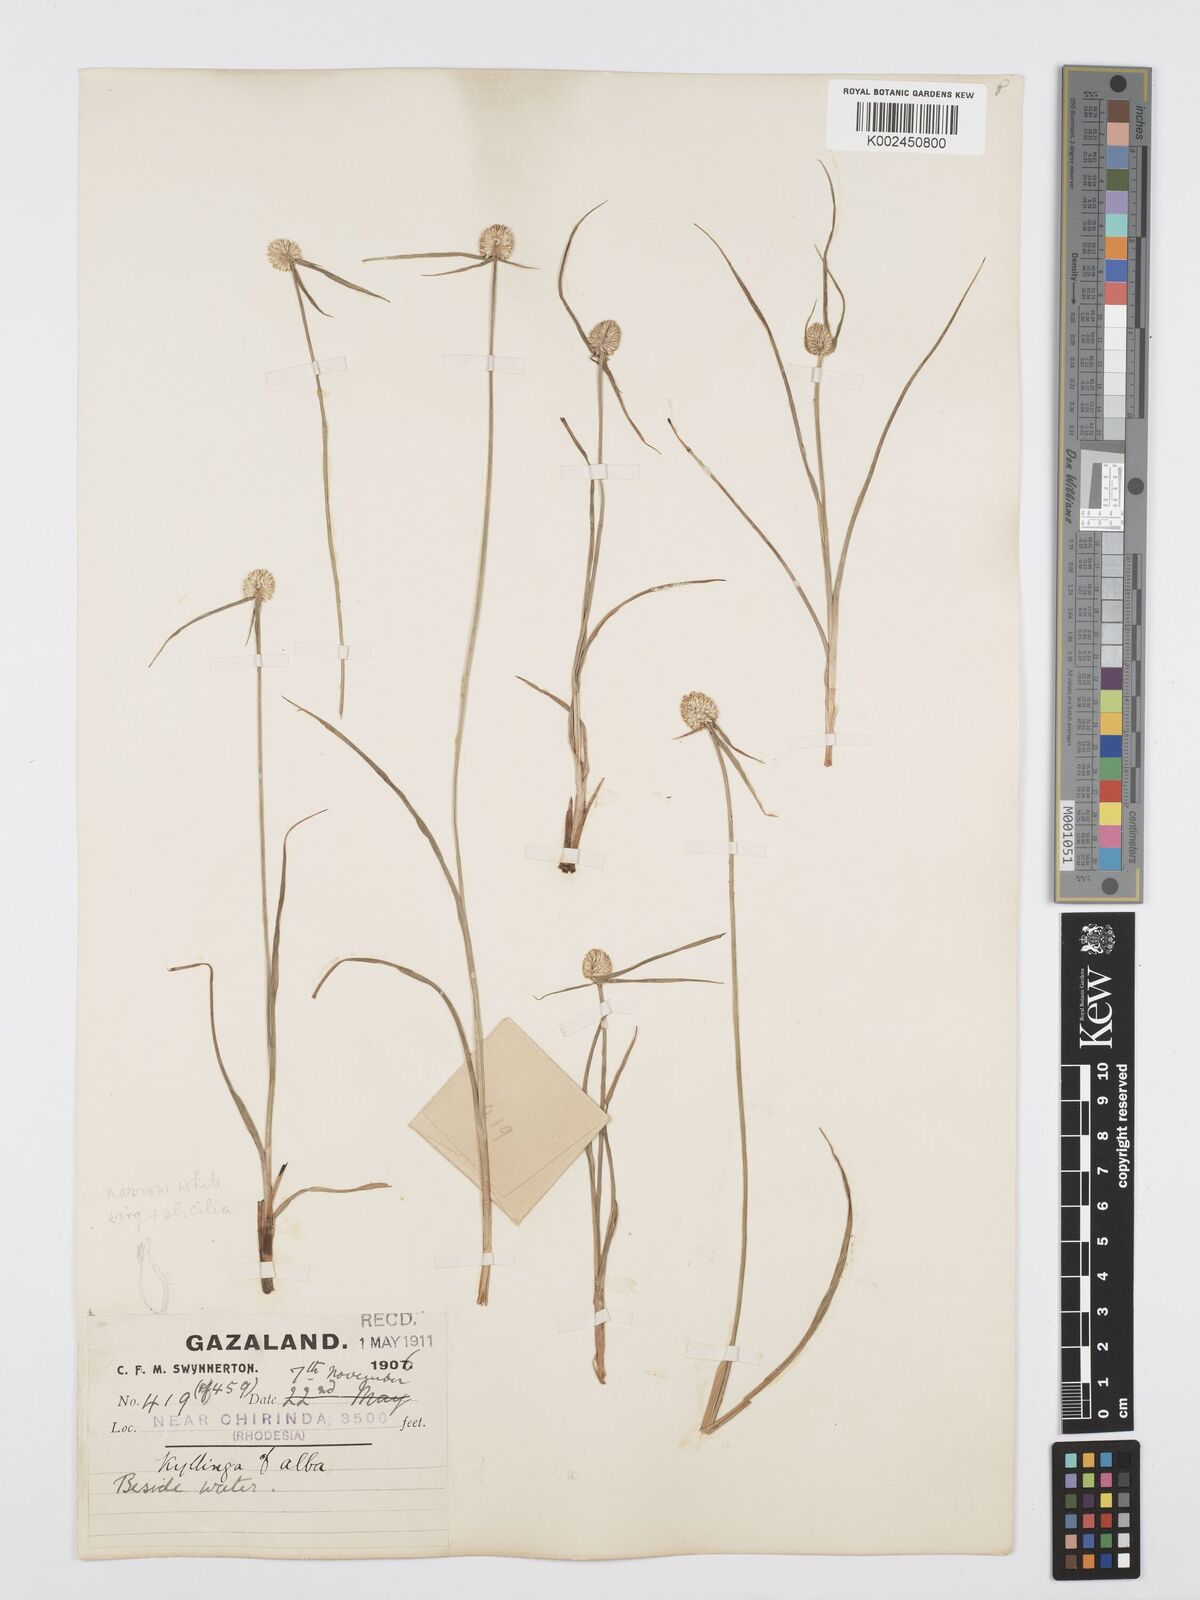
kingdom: Plantae
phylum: Tracheophyta
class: Liliopsida
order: Poales
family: Cyperaceae
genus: Cyperus
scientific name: Cyperus
